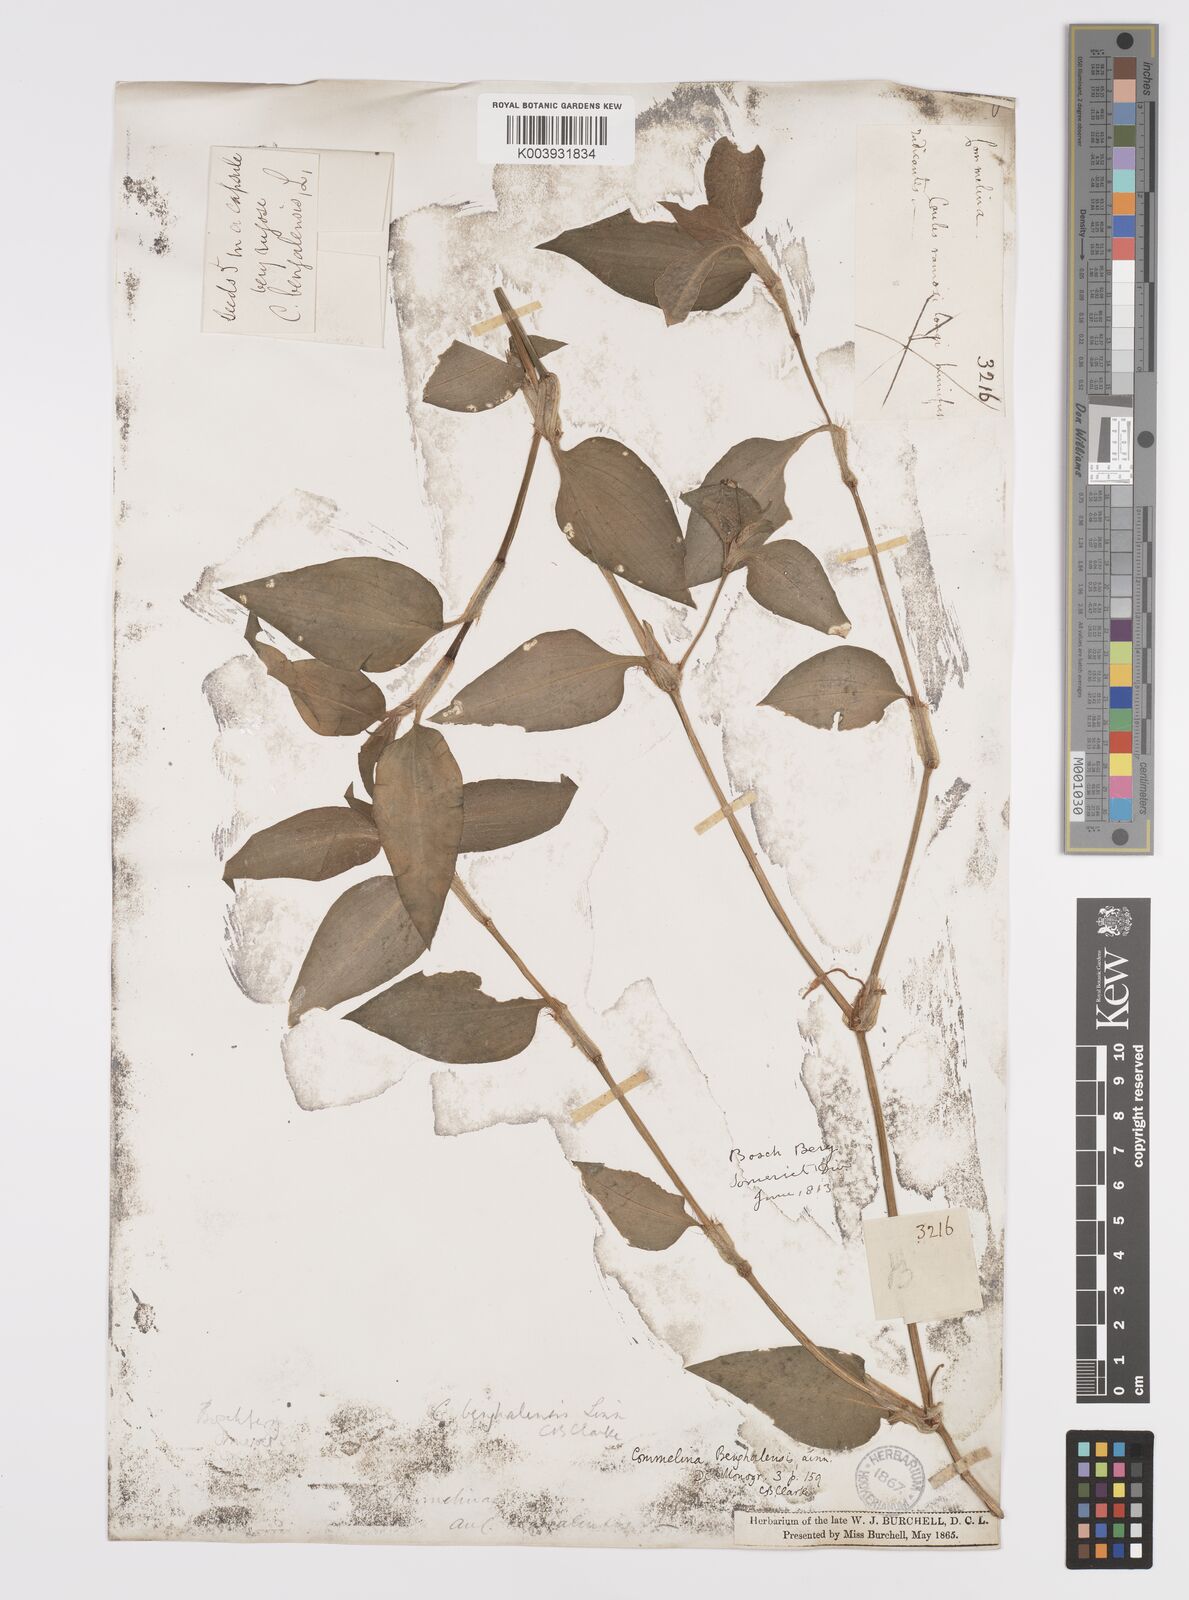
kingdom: Plantae
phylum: Tracheophyta
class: Liliopsida
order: Commelinales
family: Commelinaceae
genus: Commelina
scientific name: Commelina benghalensis
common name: Jio
